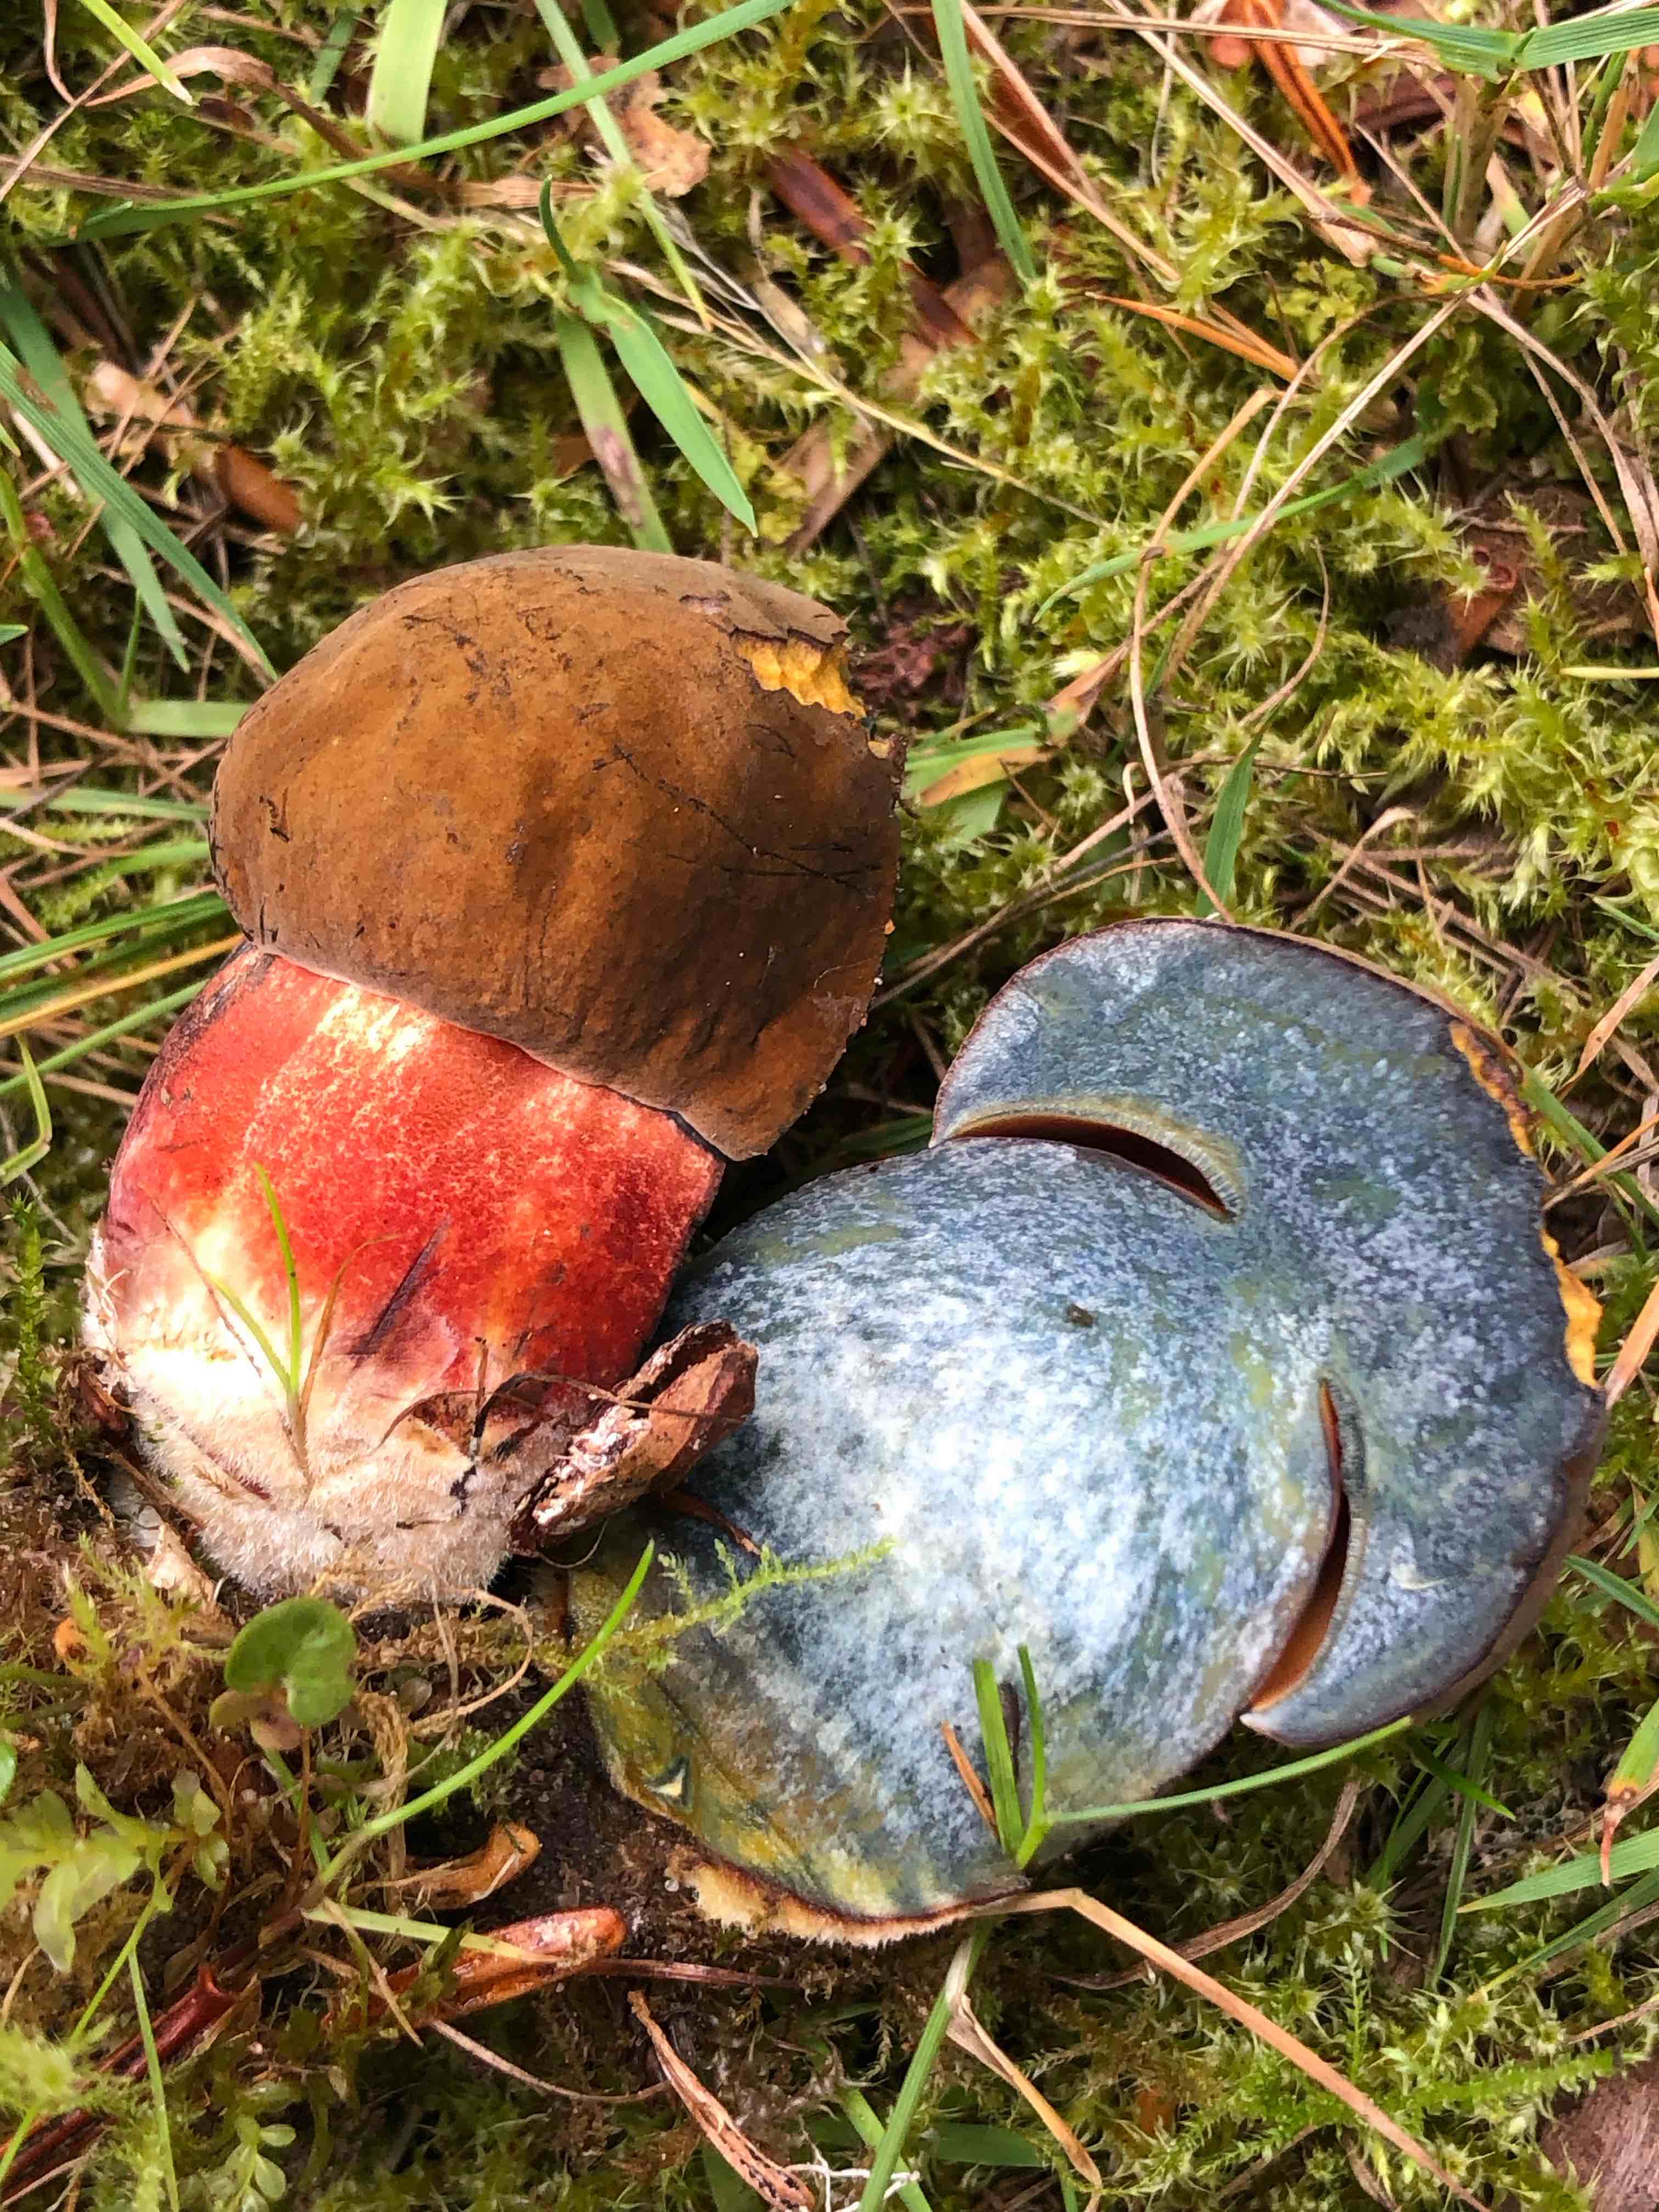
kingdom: Fungi
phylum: Basidiomycota
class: Agaricomycetes
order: Boletales
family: Boletaceae
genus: Neoboletus
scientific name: Neoboletus erythropus
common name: punktstokket indigorørhat
